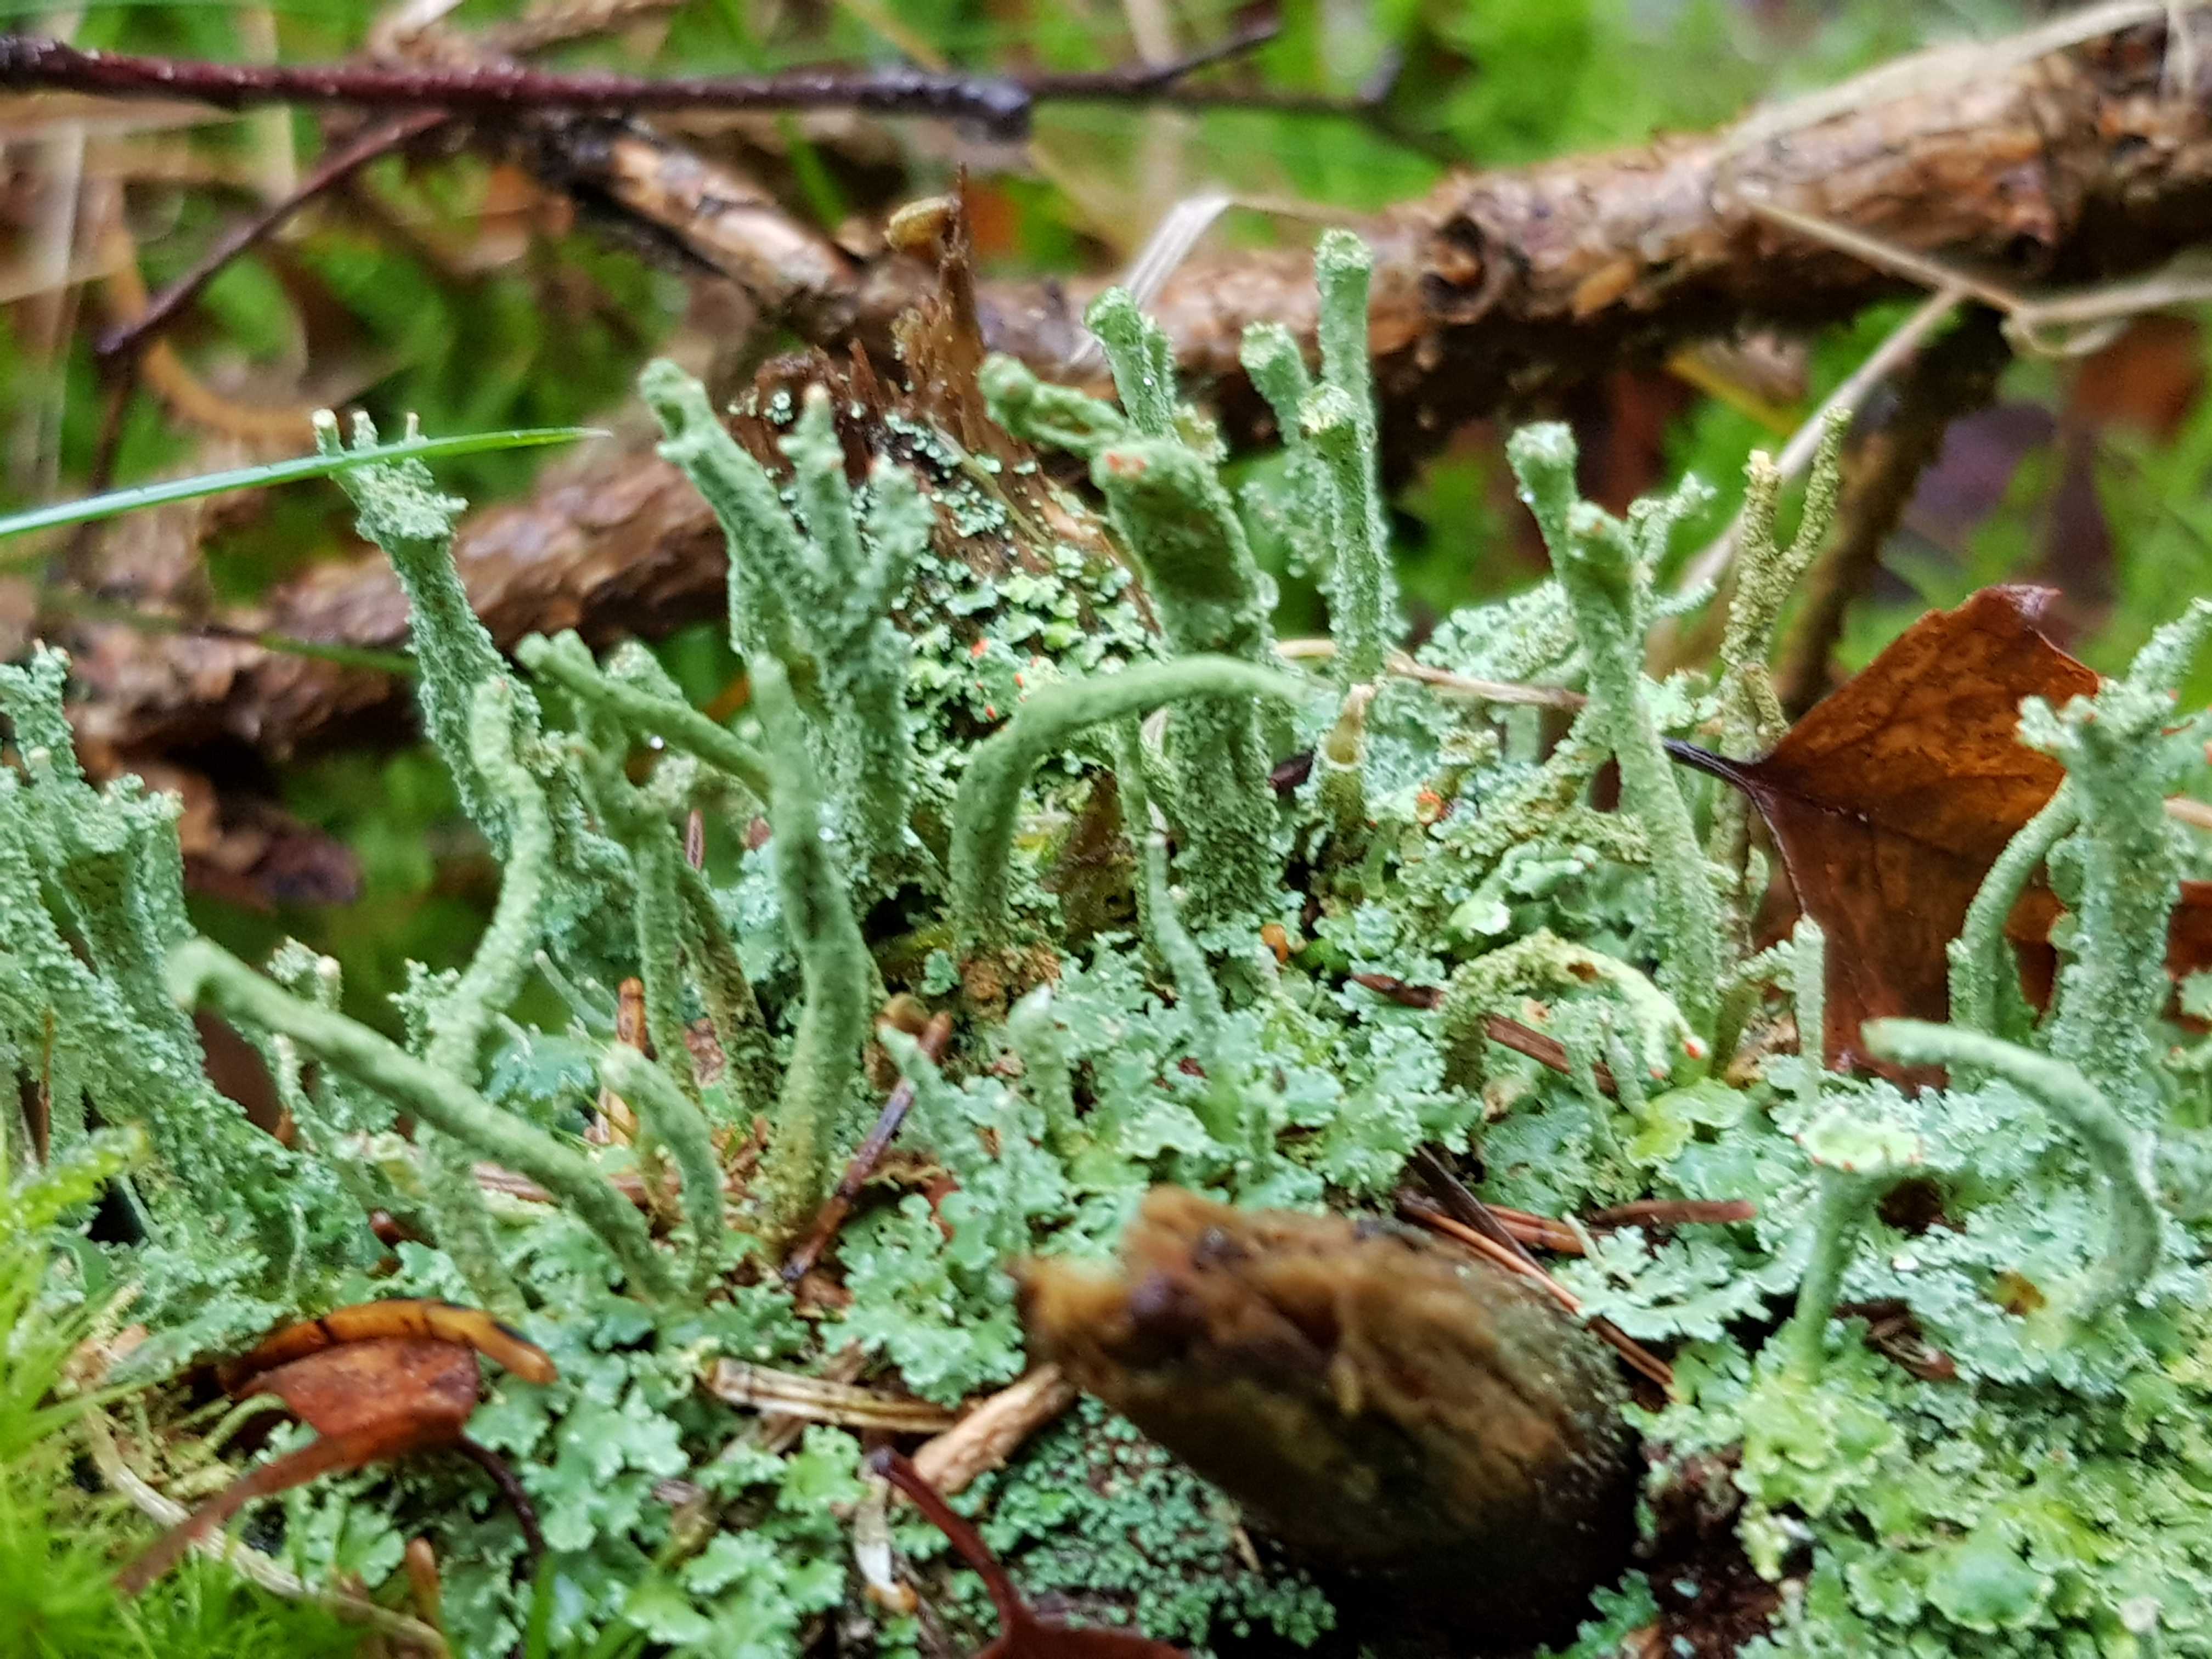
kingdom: Fungi
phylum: Ascomycota
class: Lecanoromycetes
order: Lecanorales
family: Cladoniaceae
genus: Cladonia
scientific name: Cladonia polydactyla
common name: vifte-bægerlav
